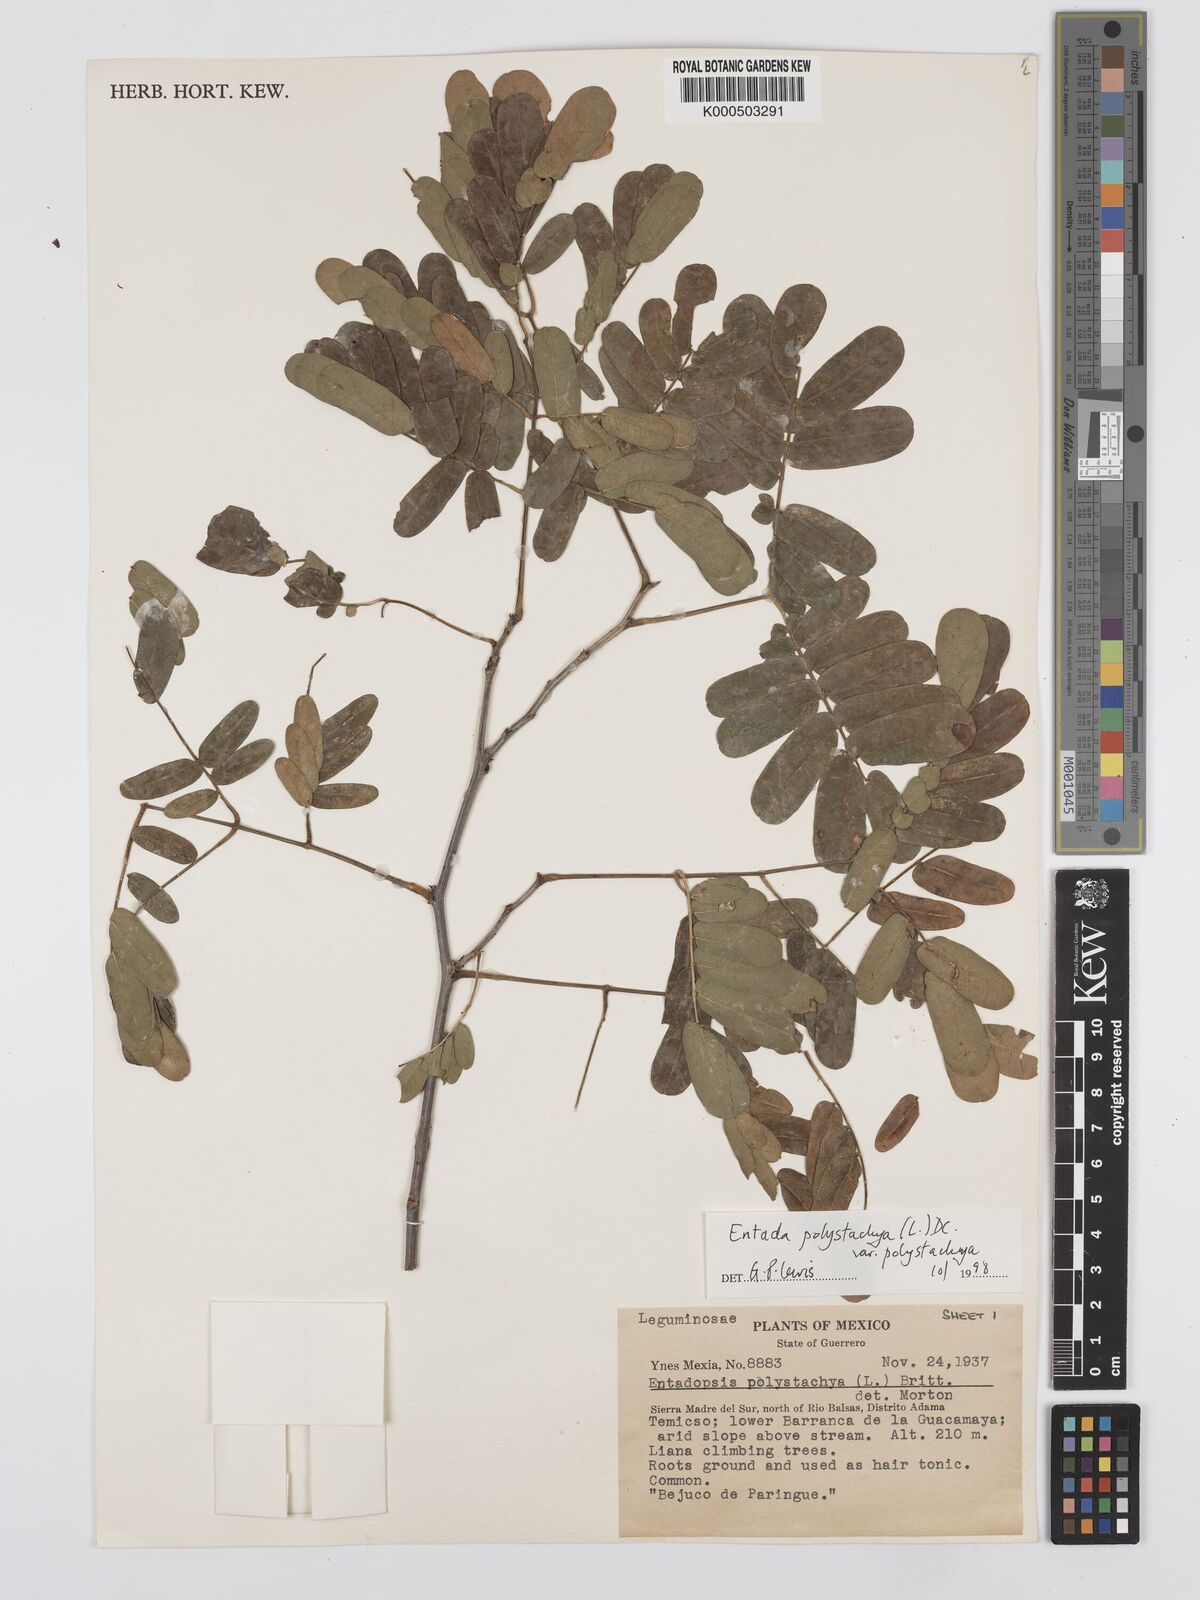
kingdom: Plantae
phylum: Tracheophyta
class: Magnoliopsida
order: Fabales
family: Fabaceae
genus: Entada
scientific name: Entada polystachya
